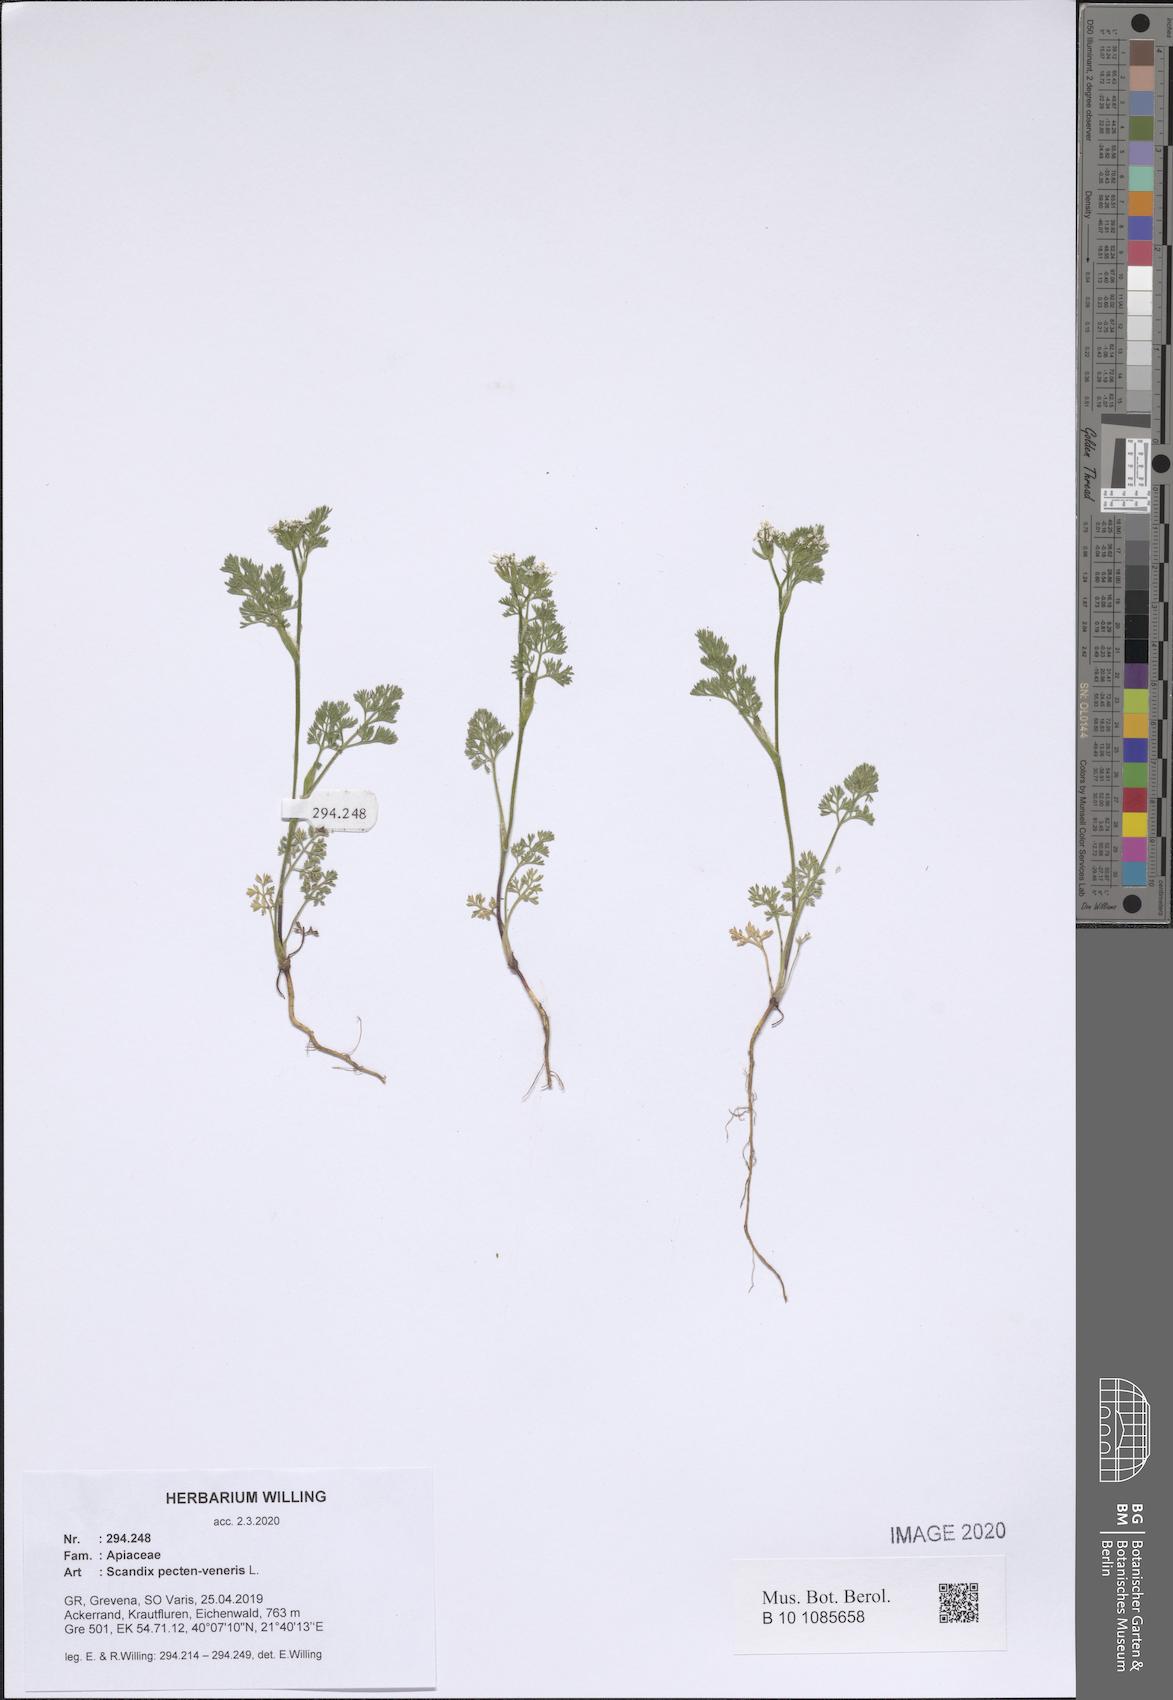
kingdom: Plantae
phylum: Tracheophyta
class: Magnoliopsida
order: Apiales
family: Apiaceae
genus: Scandix
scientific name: Scandix pecten-veneris
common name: Shepherd's-needle
